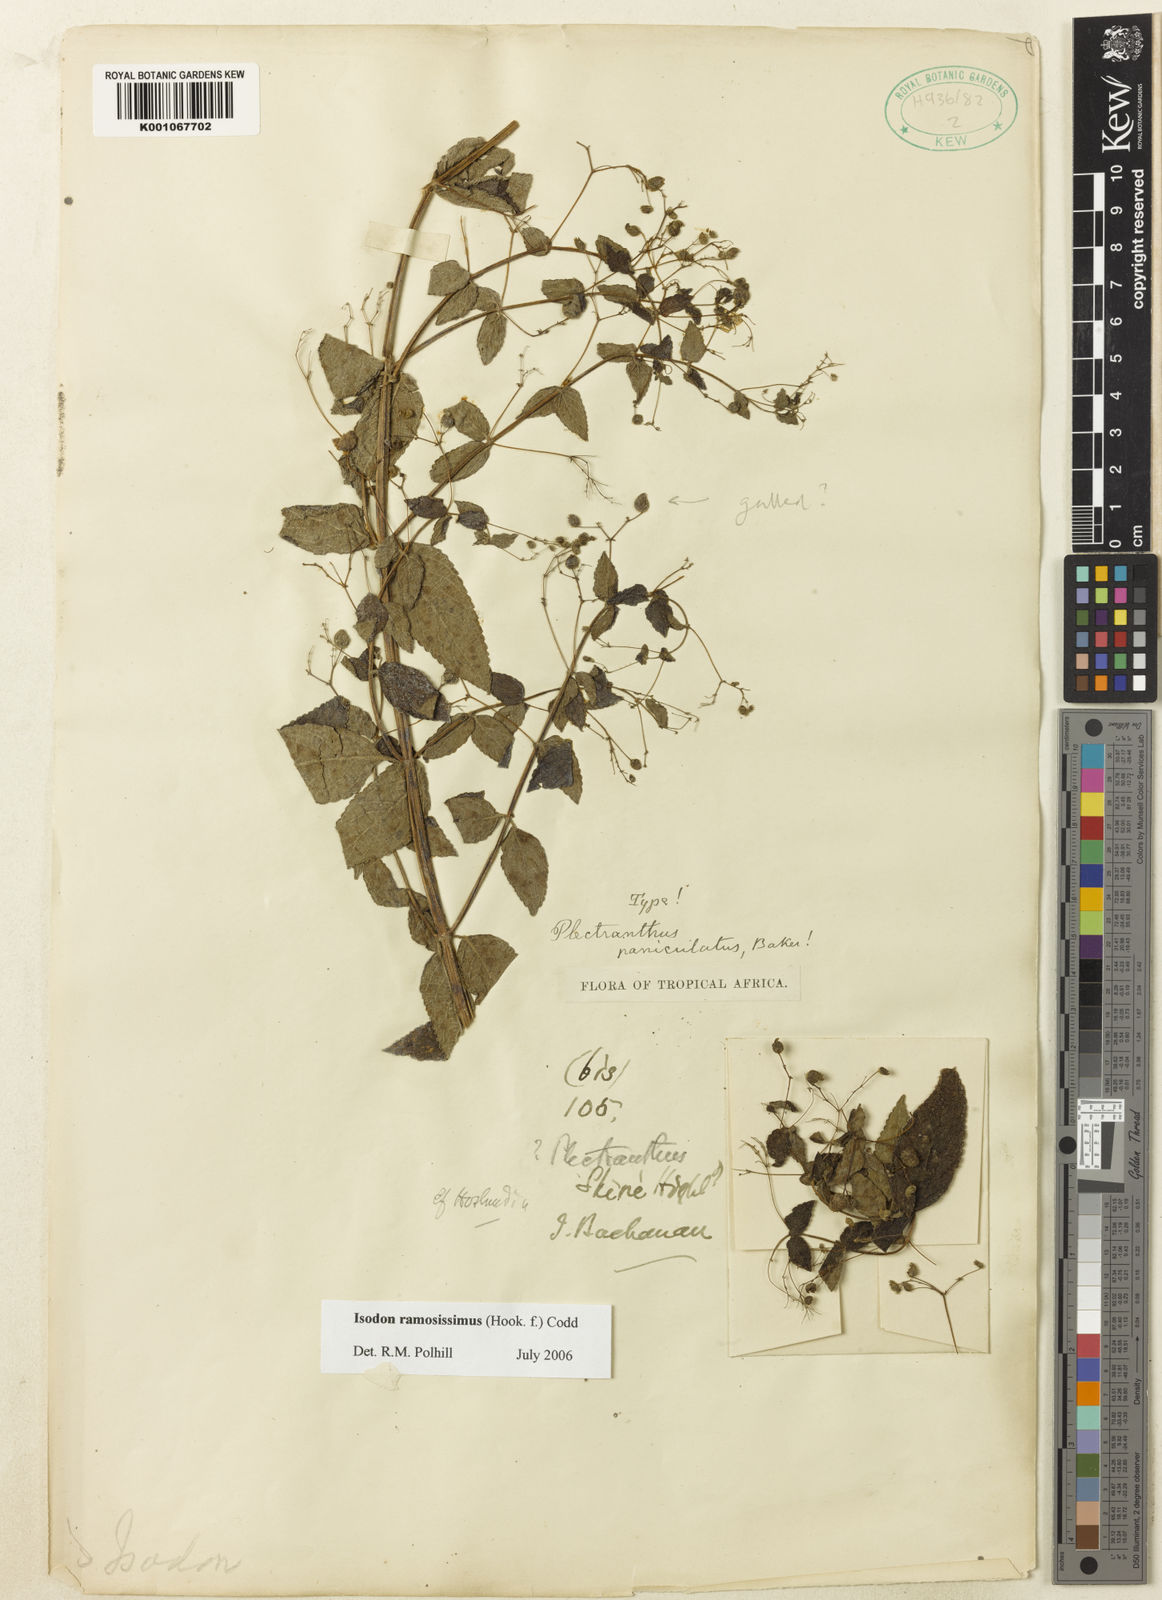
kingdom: Plantae
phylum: Tracheophyta
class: Magnoliopsida
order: Lamiales
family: Lamiaceae
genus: Isodon
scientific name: Isodon ramosissimus
